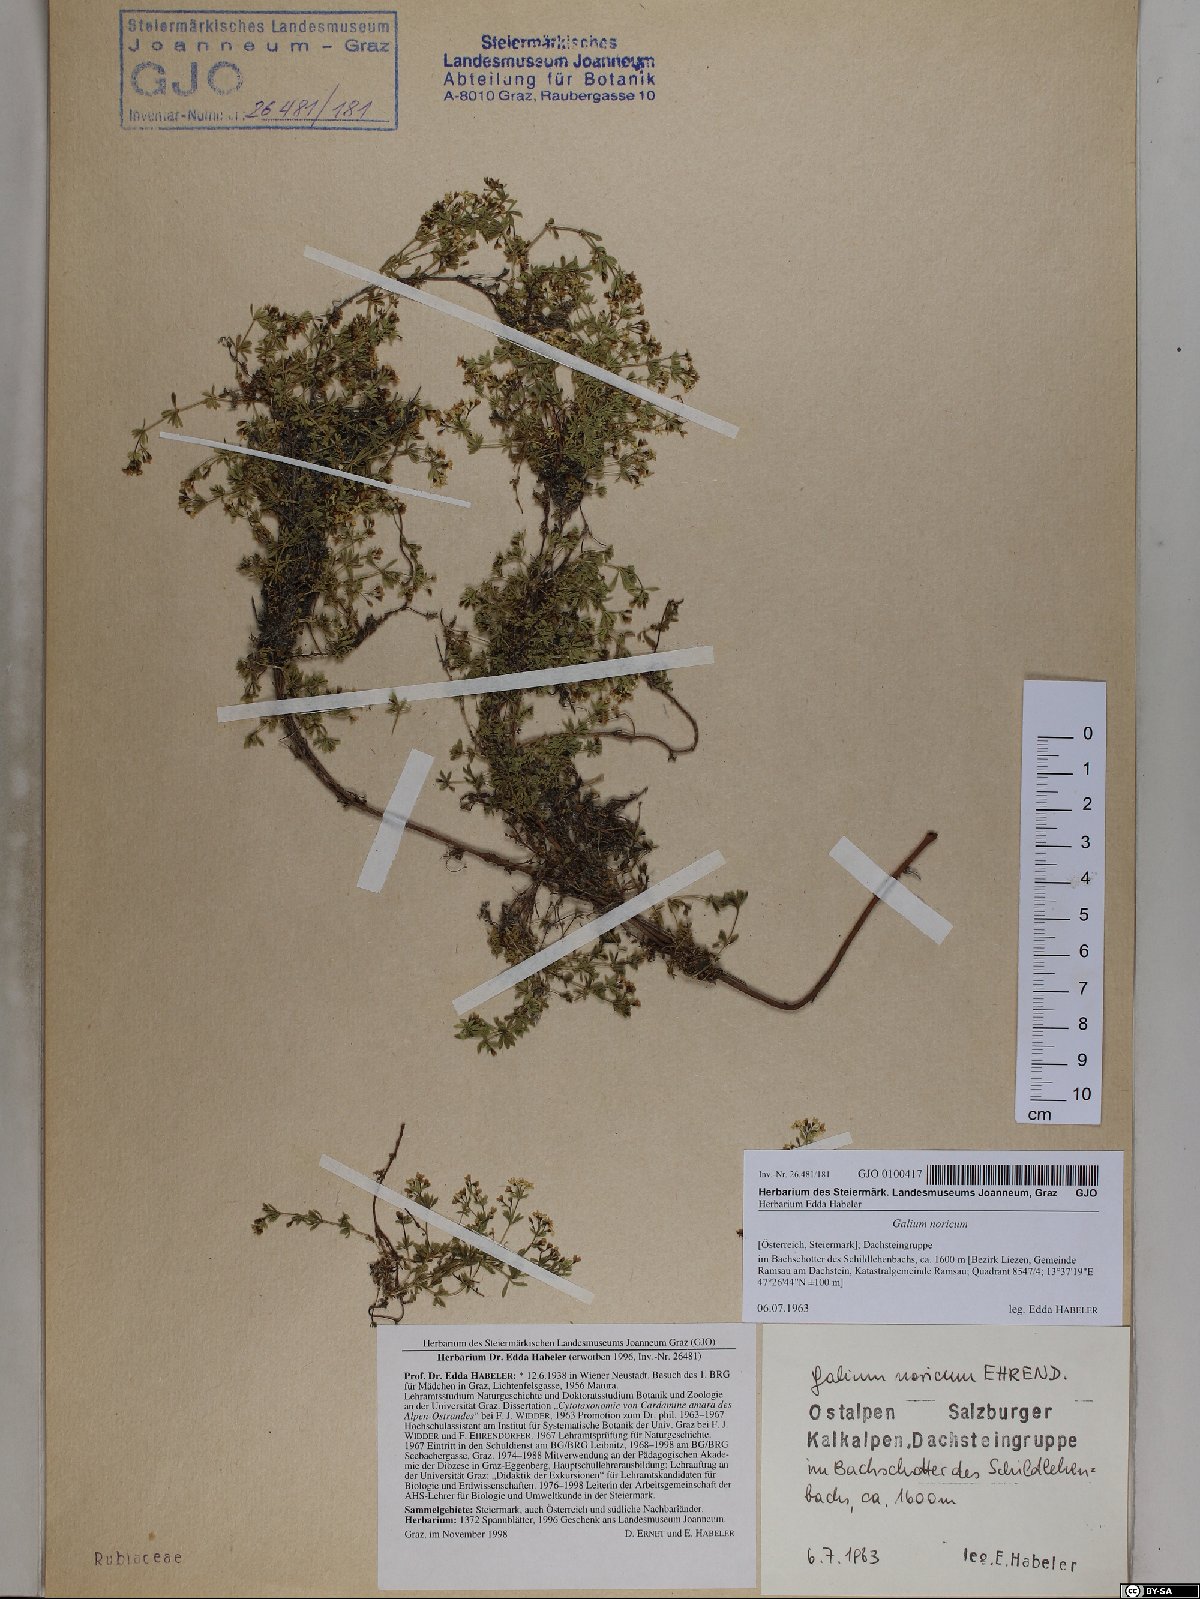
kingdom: Plantae
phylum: Tracheophyta
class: Magnoliopsida
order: Gentianales
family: Rubiaceae
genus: Galium
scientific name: Galium noricum
